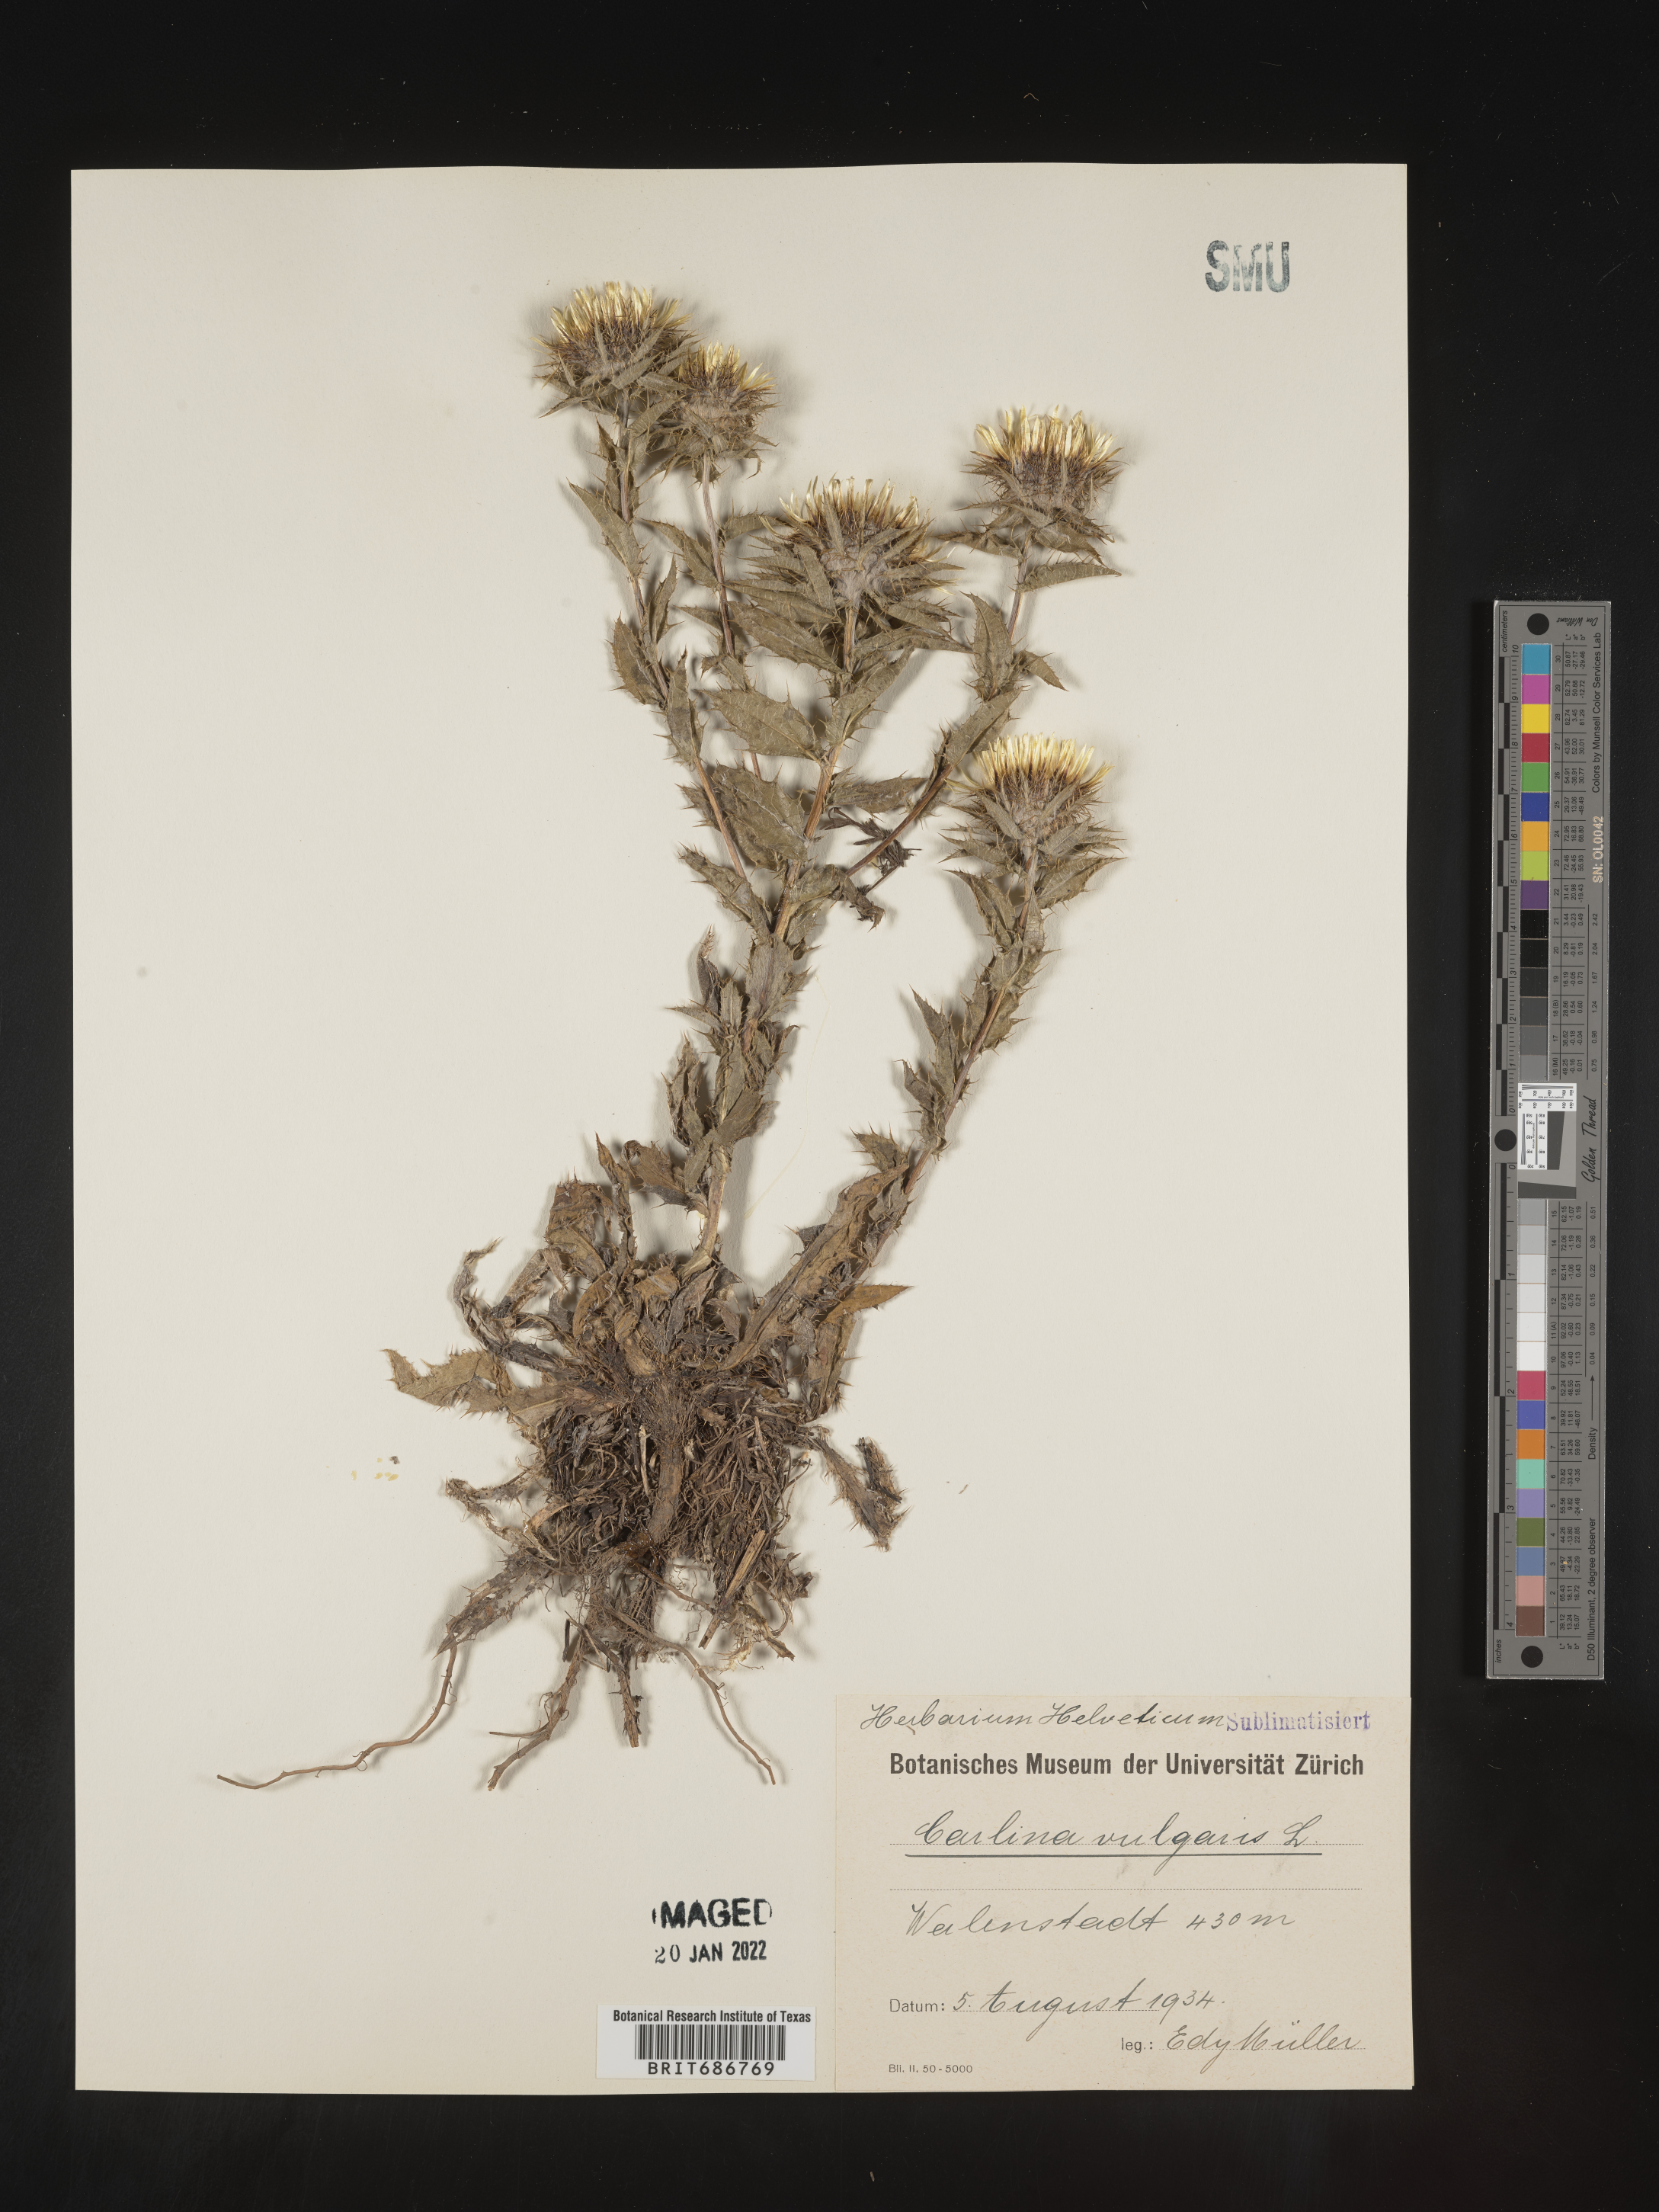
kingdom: Plantae
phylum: Tracheophyta
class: Magnoliopsida
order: Asterales
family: Asteraceae
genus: Carlina
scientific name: Carlina
